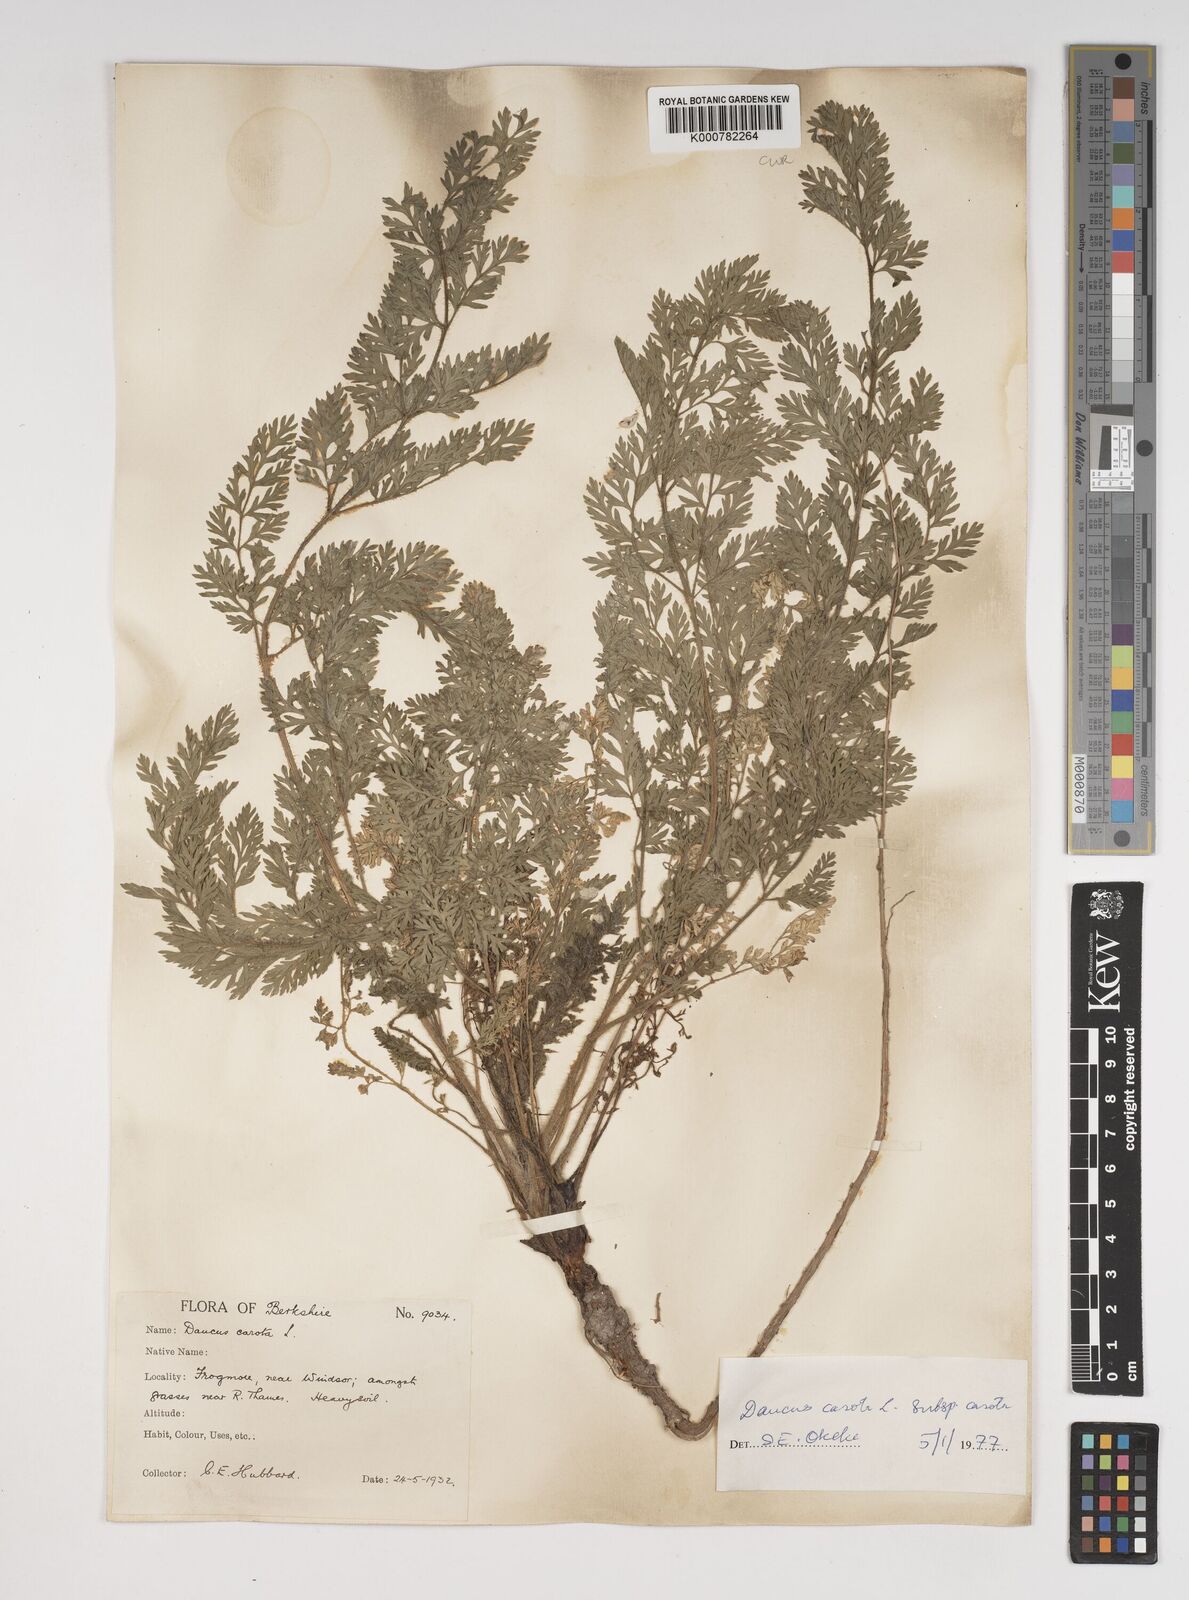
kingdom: Plantae
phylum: Tracheophyta
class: Magnoliopsida
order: Apiales
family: Apiaceae
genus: Daucus
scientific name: Daucus carota
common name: Wild carrot
